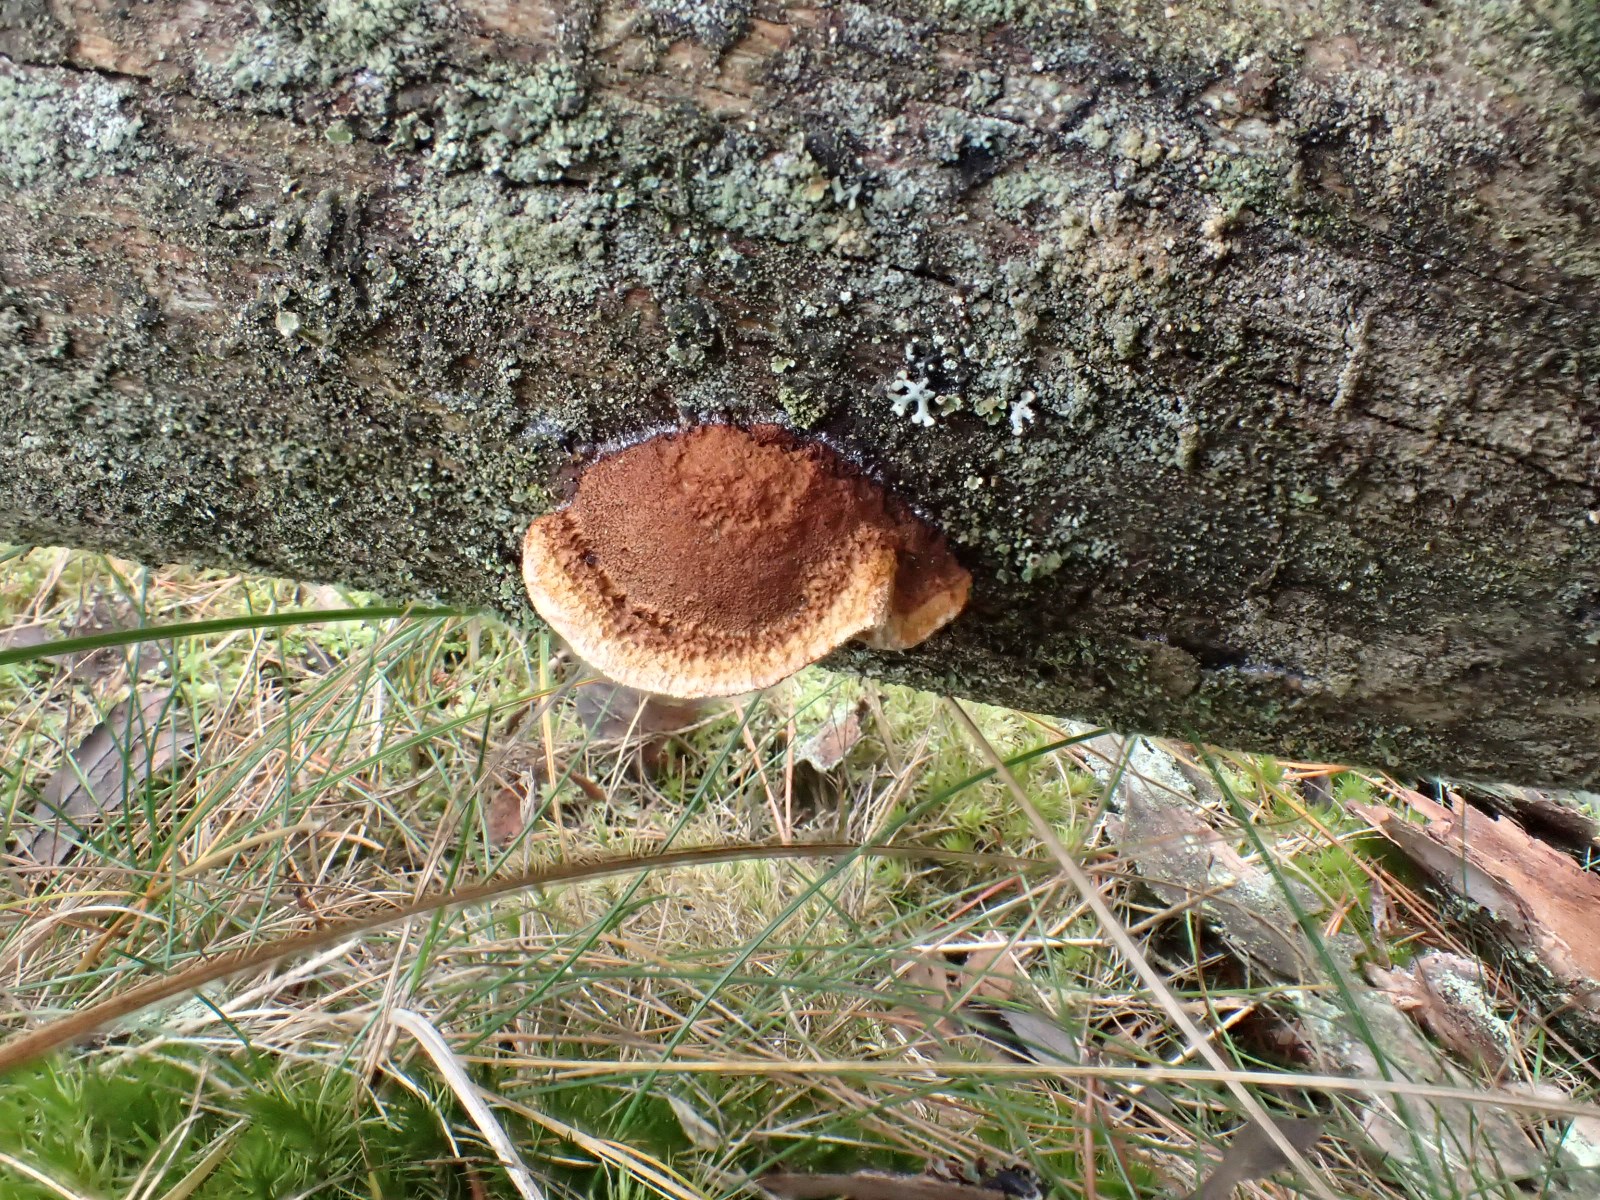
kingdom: Fungi
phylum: Basidiomycota
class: Agaricomycetes
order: Gloeophyllales
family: Gloeophyllaceae
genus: Gloeophyllum
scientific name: Gloeophyllum sepiarium
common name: fyrre-korkhat
